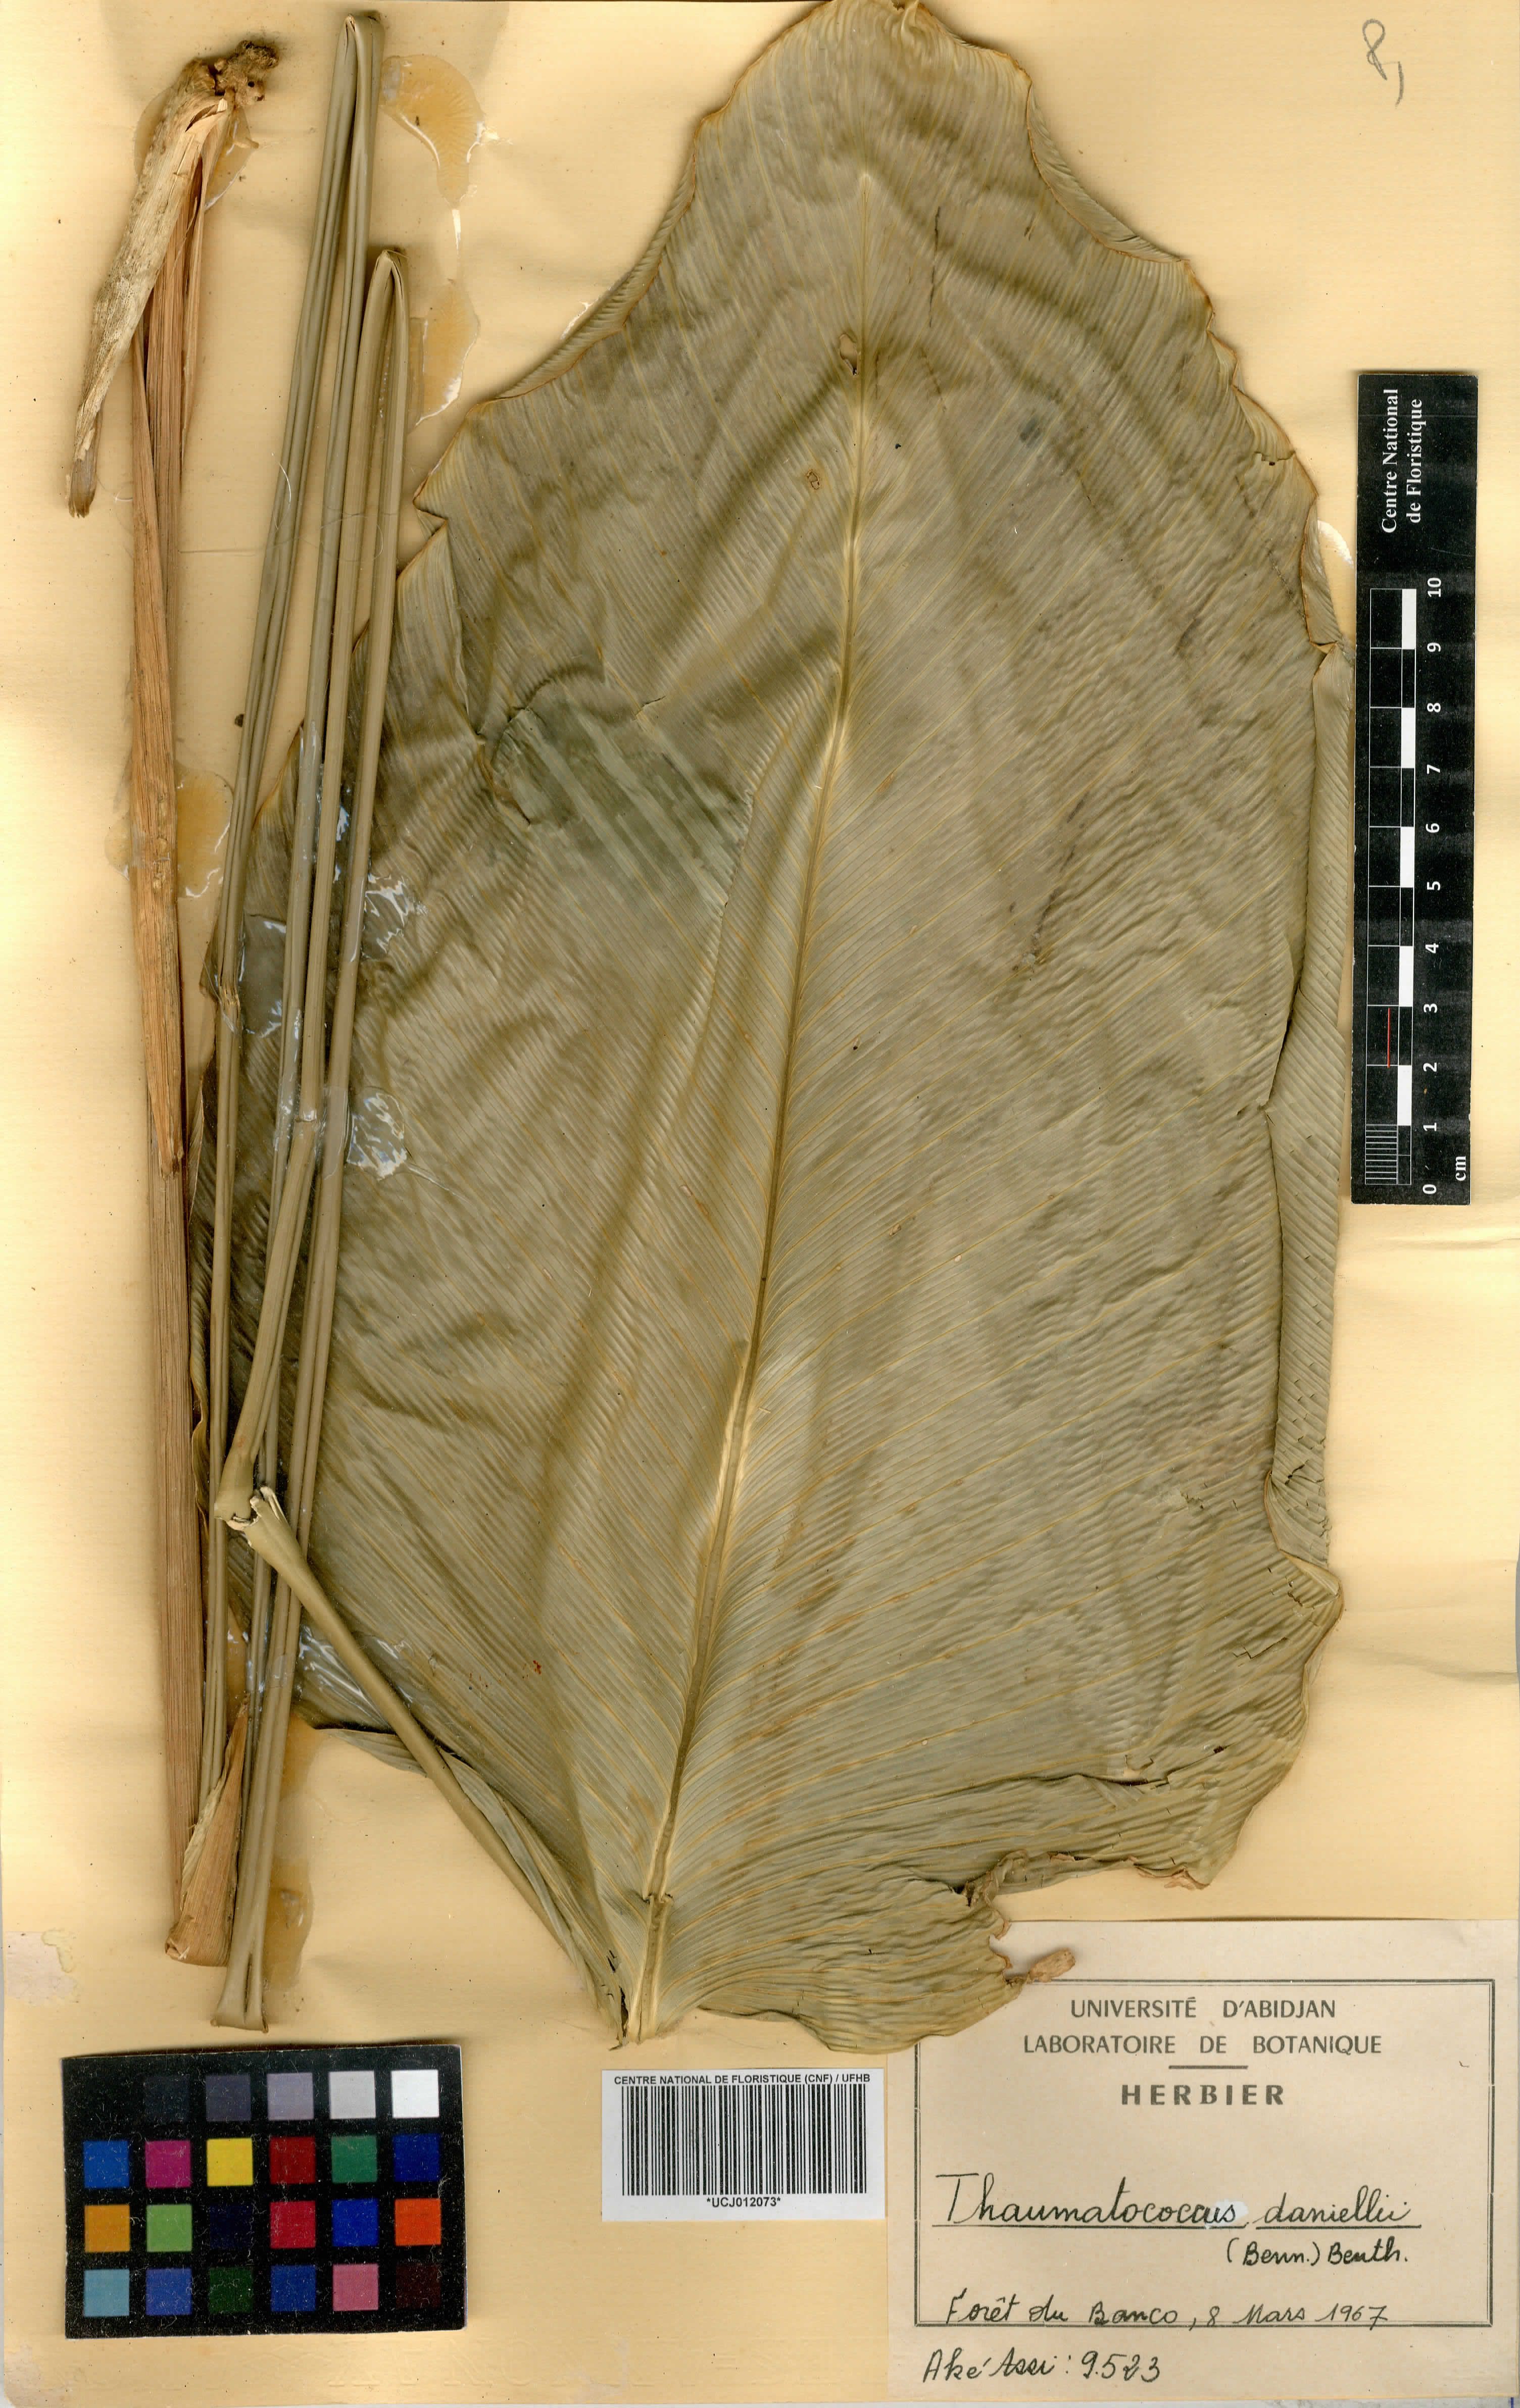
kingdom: Plantae
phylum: Tracheophyta
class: Liliopsida
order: Zingiberales
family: Marantaceae
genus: Thaumatococcus
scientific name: Thaumatococcus daniellii
